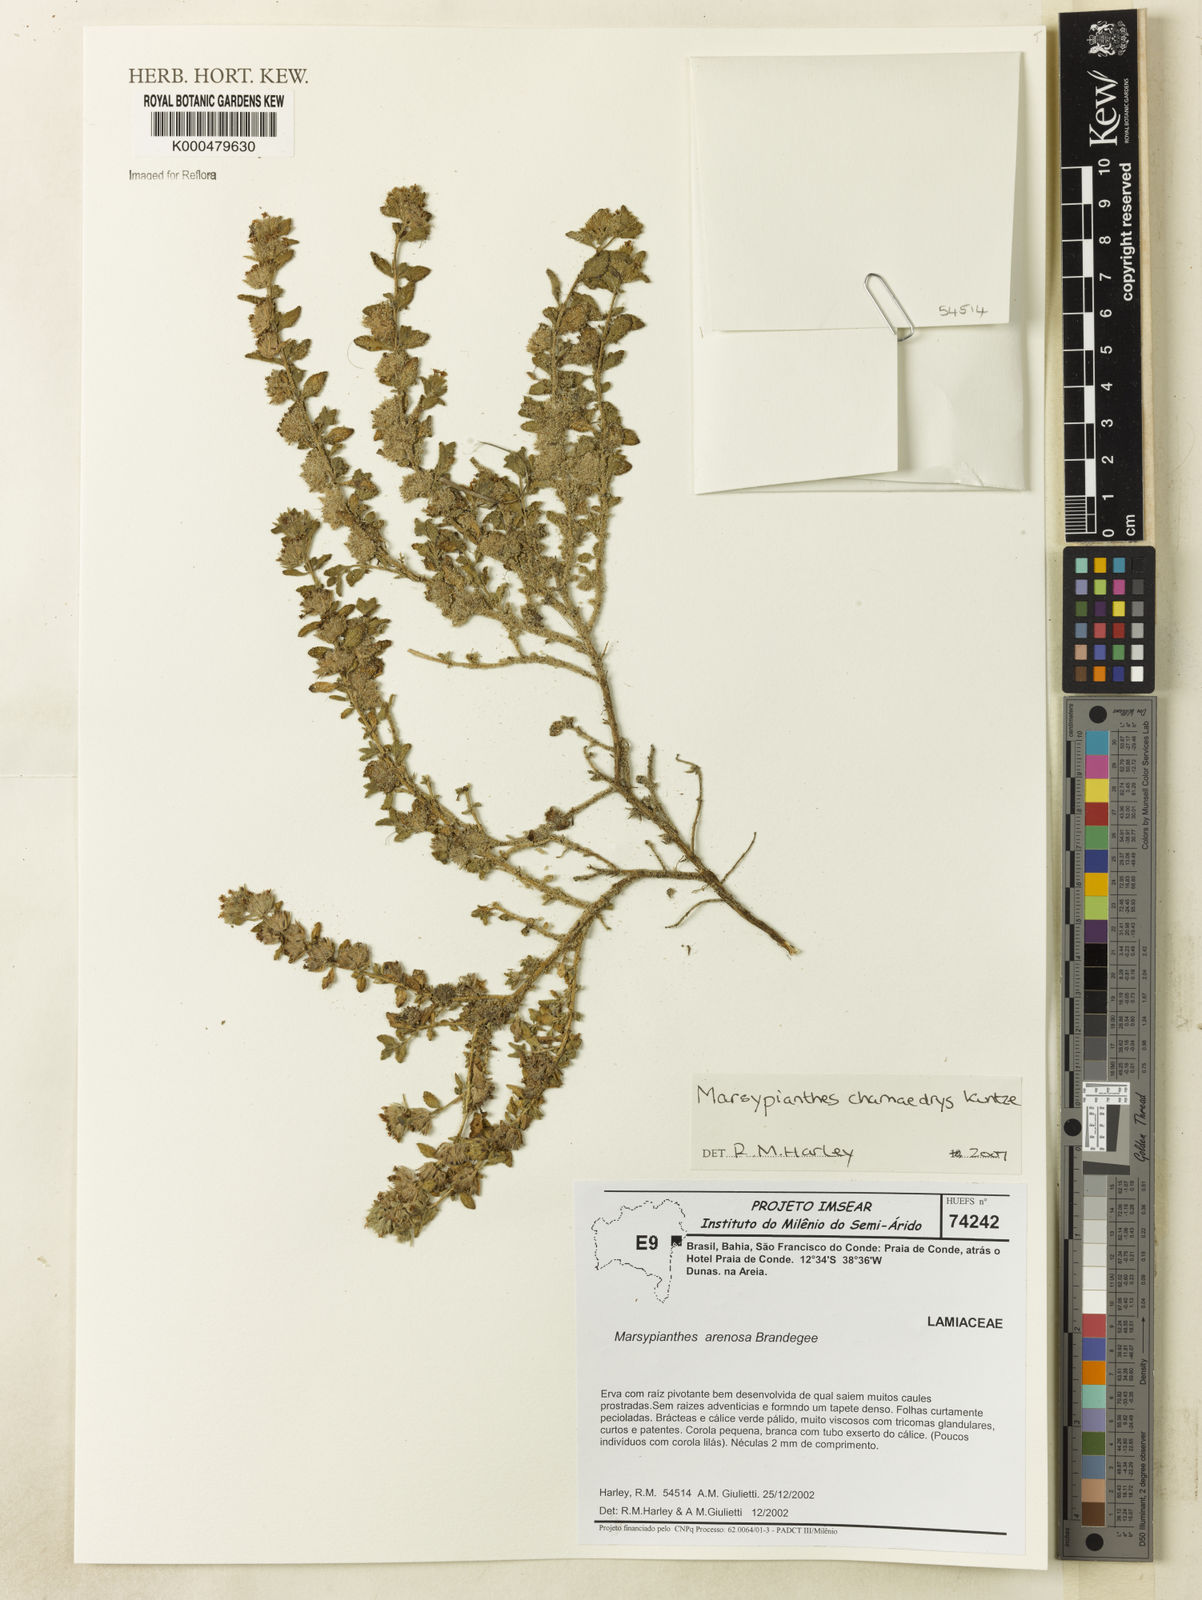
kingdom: Plantae
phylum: Tracheophyta
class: Magnoliopsida
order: Lamiales
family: Lamiaceae
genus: Marsypianthes
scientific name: Marsypianthes chamaedrys
